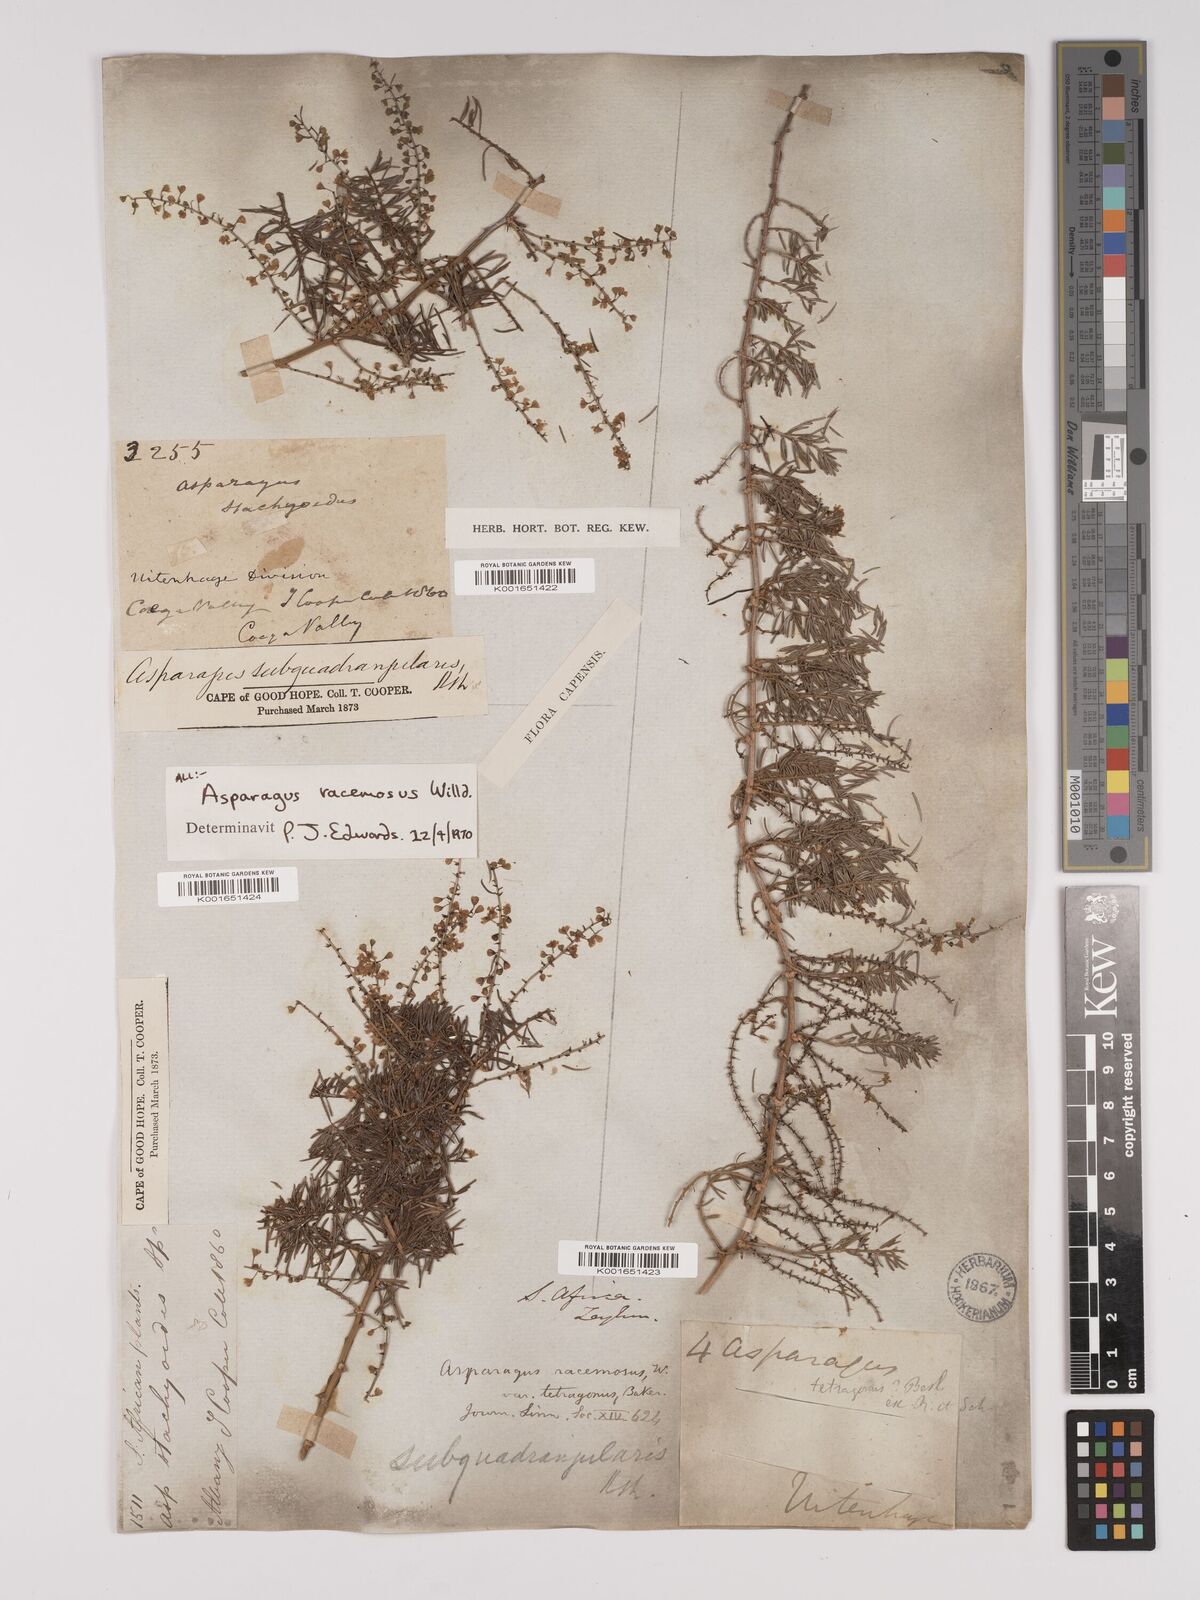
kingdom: Plantae
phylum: Tracheophyta
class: Liliopsida
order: Asparagales
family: Asparagaceae
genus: Asparagus
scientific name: Asparagus racemosus
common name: Asparagus-fern
